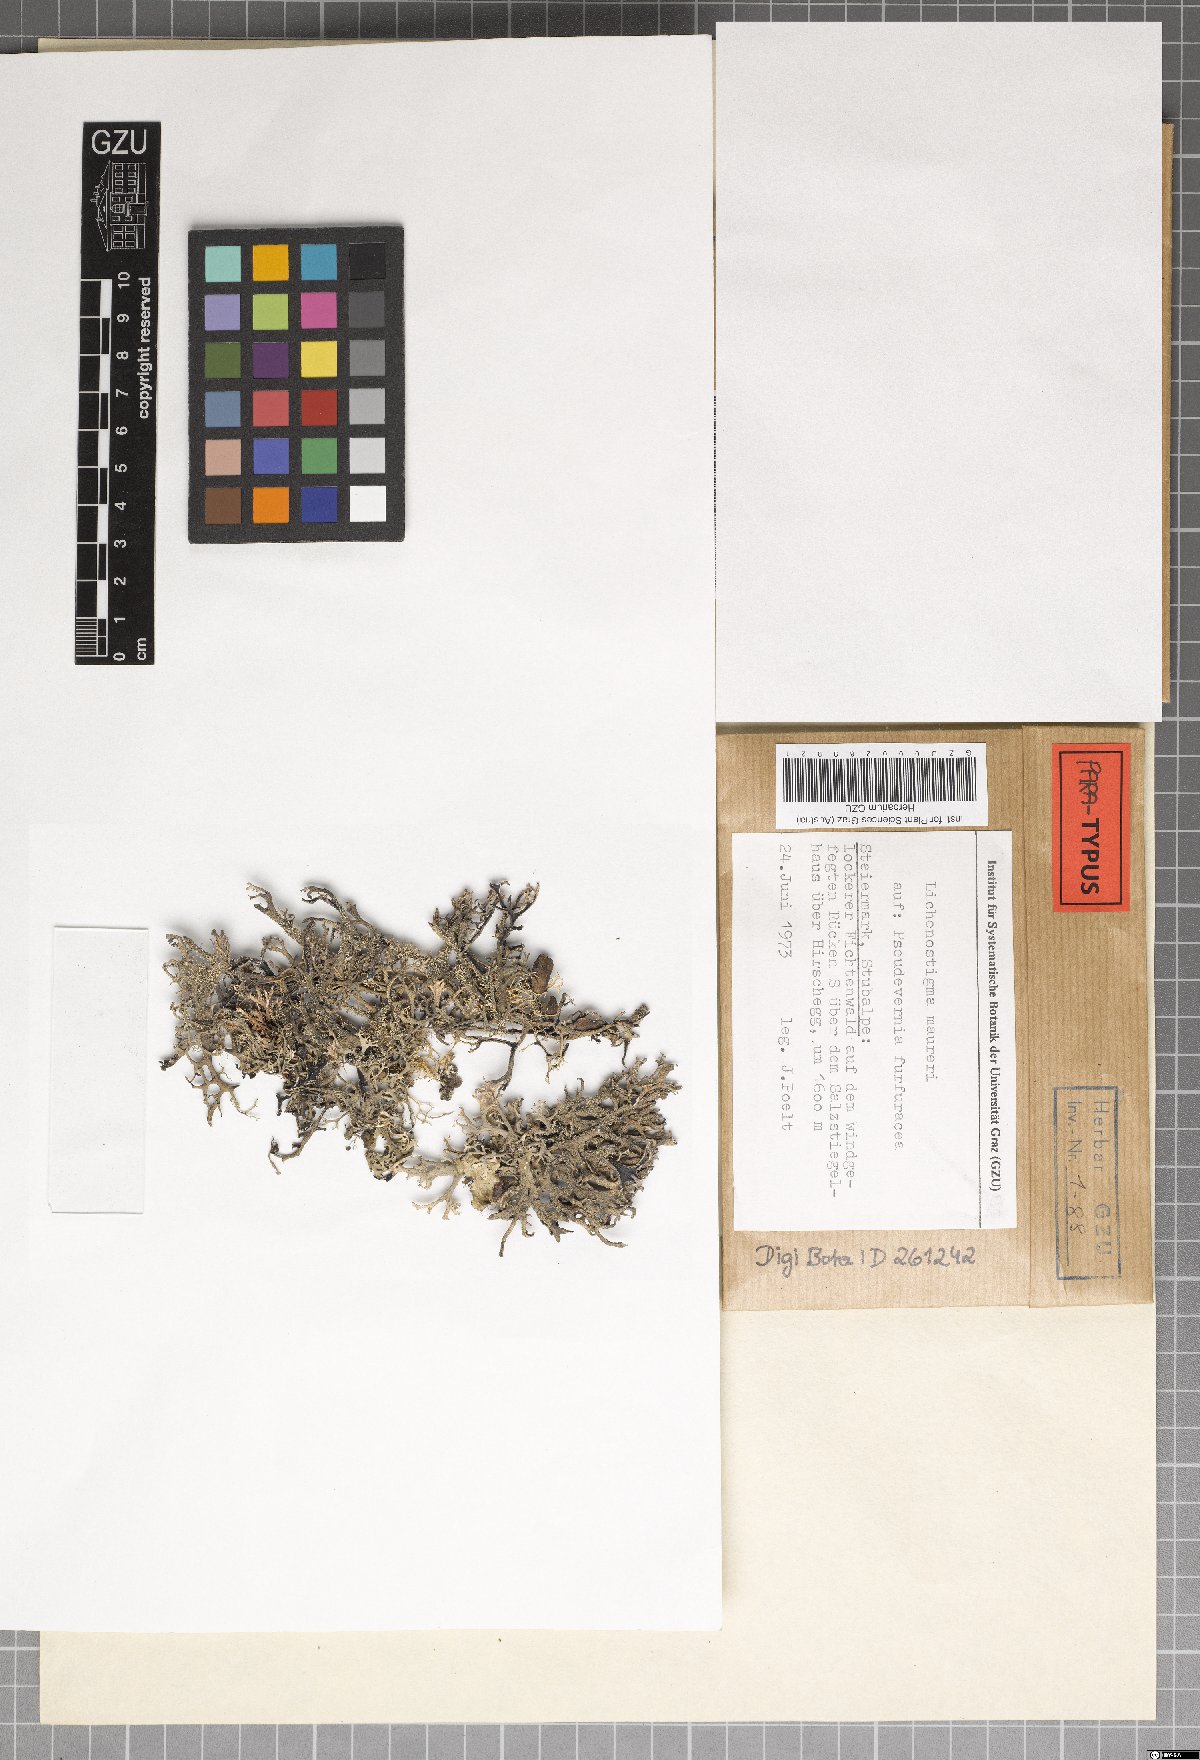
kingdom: Fungi
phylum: Ascomycota
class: Arthoniomycetes
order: Lichenostigmatales
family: Phaeococcomycetaceae
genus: Lichenostigma
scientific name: Lichenostigma maureri
